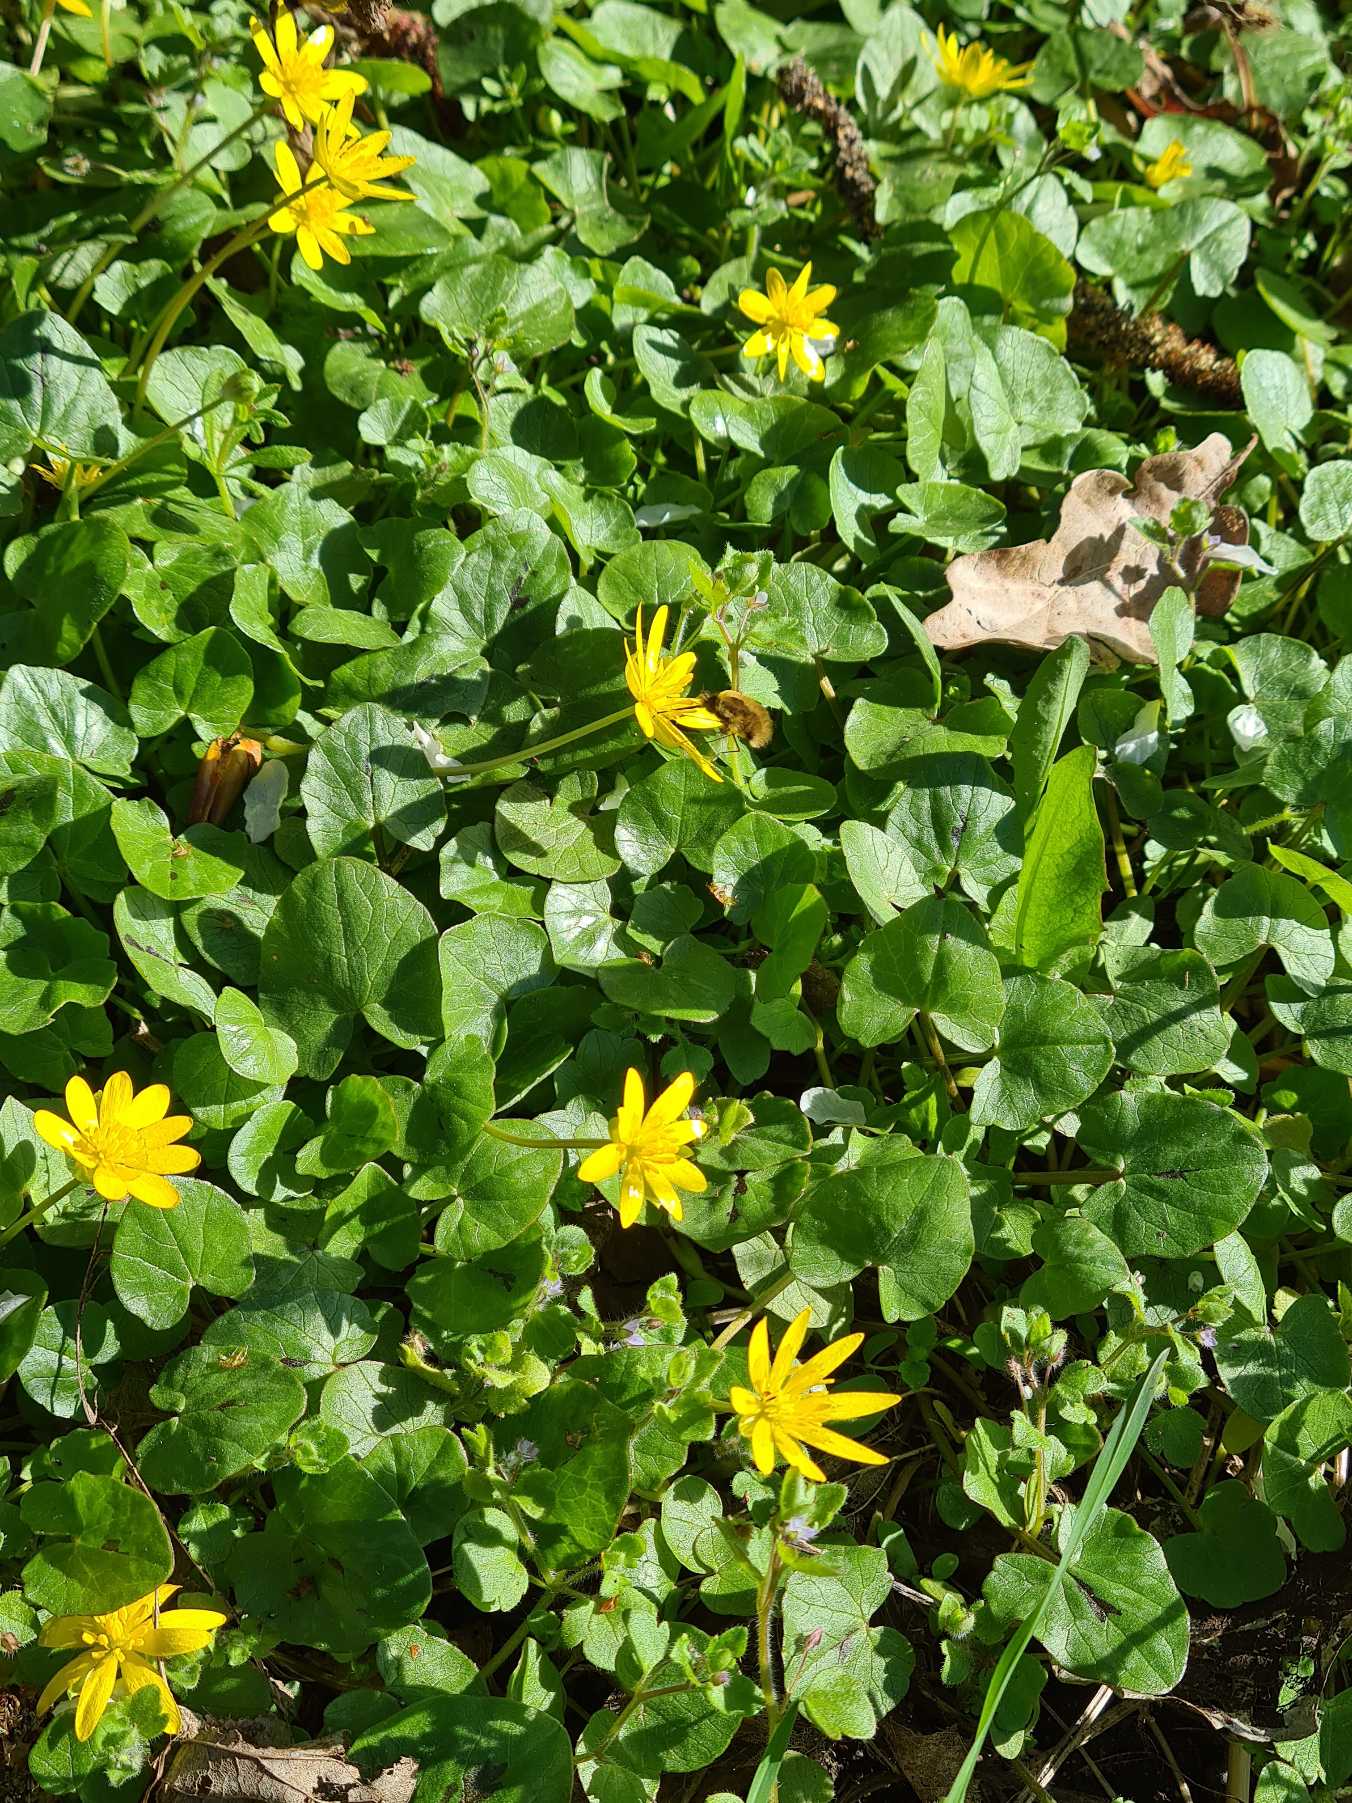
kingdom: Animalia
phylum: Arthropoda
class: Insecta
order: Diptera
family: Bombyliidae
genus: Bombylius
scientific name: Bombylius major
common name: Stor humleflue
